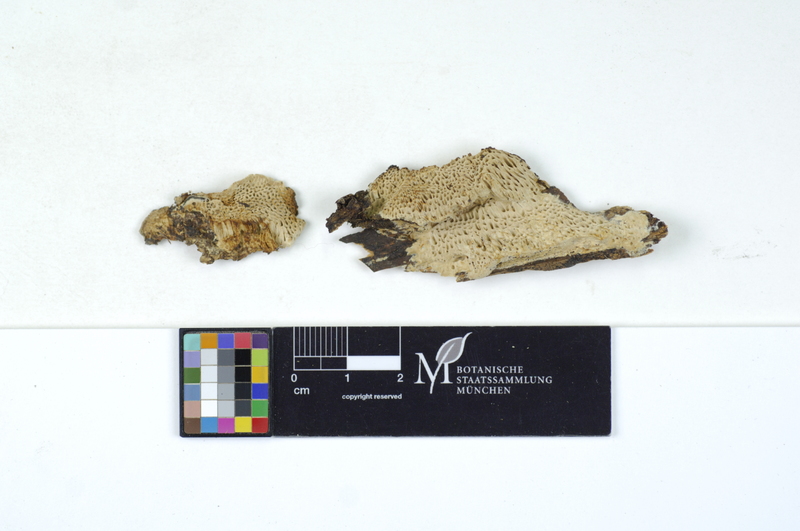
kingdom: Plantae
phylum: Tracheophyta
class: Pinopsida
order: Pinales
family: Pinaceae
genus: Picea
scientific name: Picea
